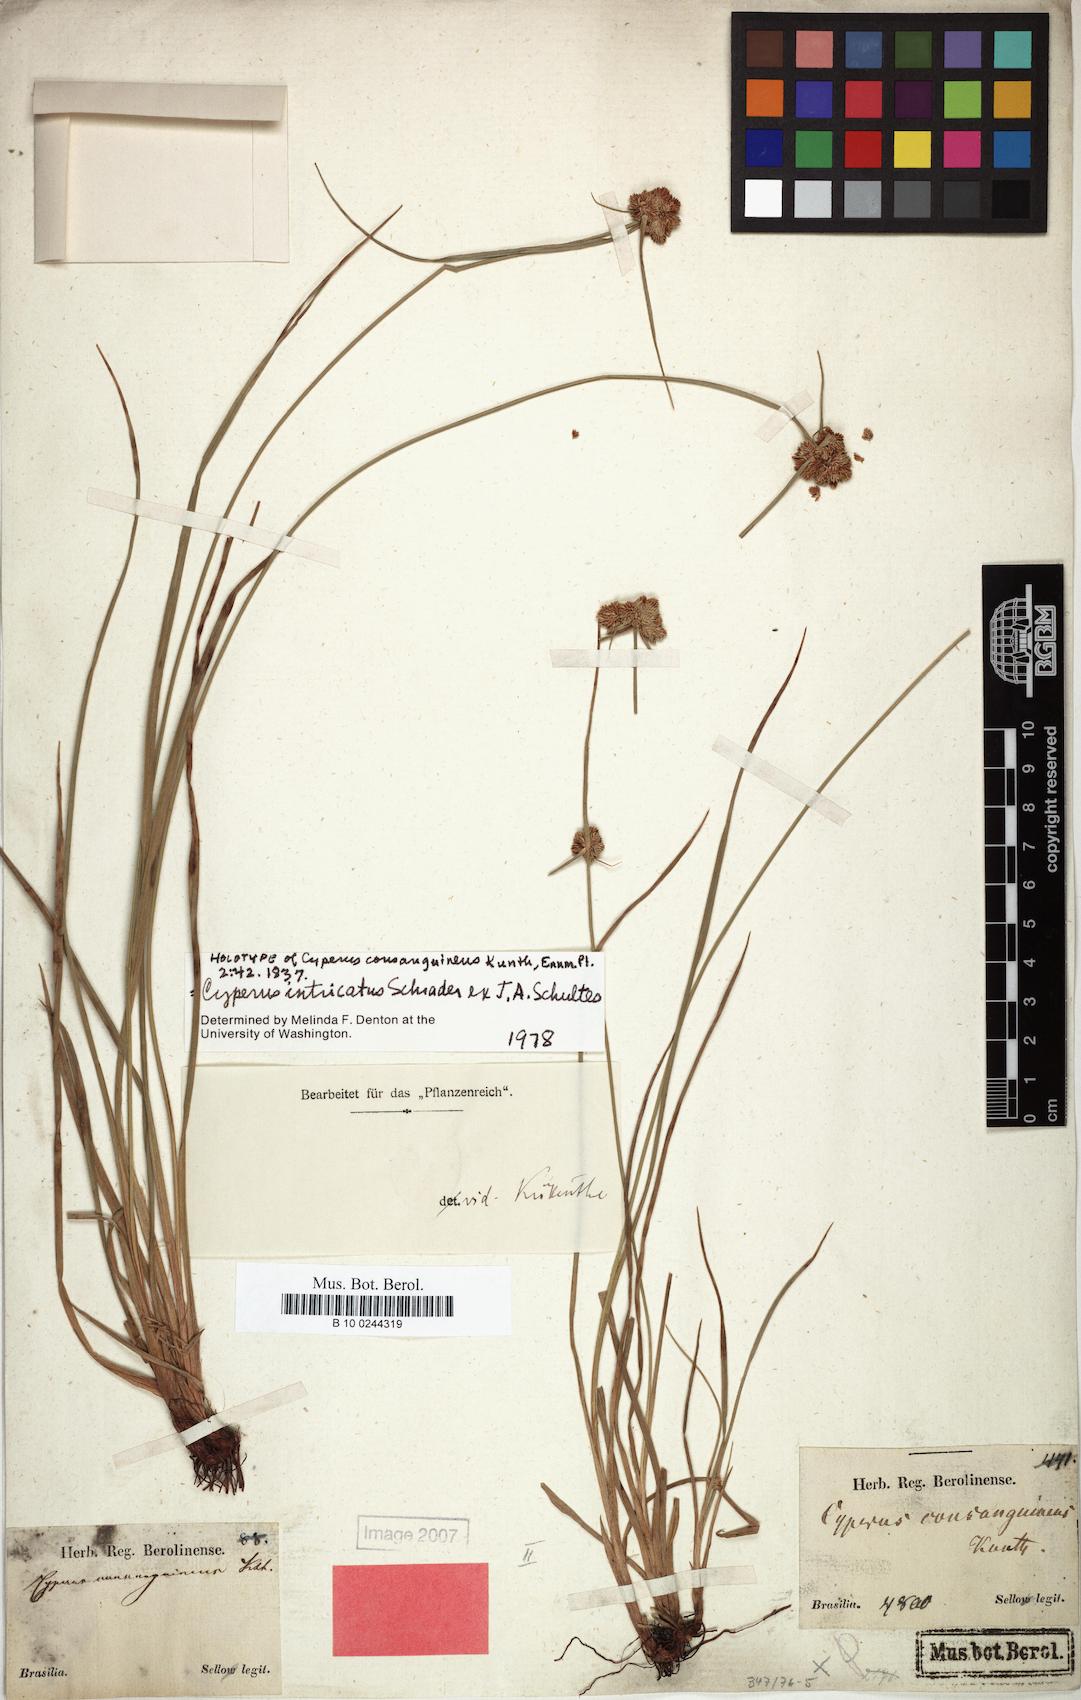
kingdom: Plantae
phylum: Tracheophyta
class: Liliopsida
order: Poales
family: Cyperaceae
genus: Cyperus
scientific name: Cyperus intricatus
